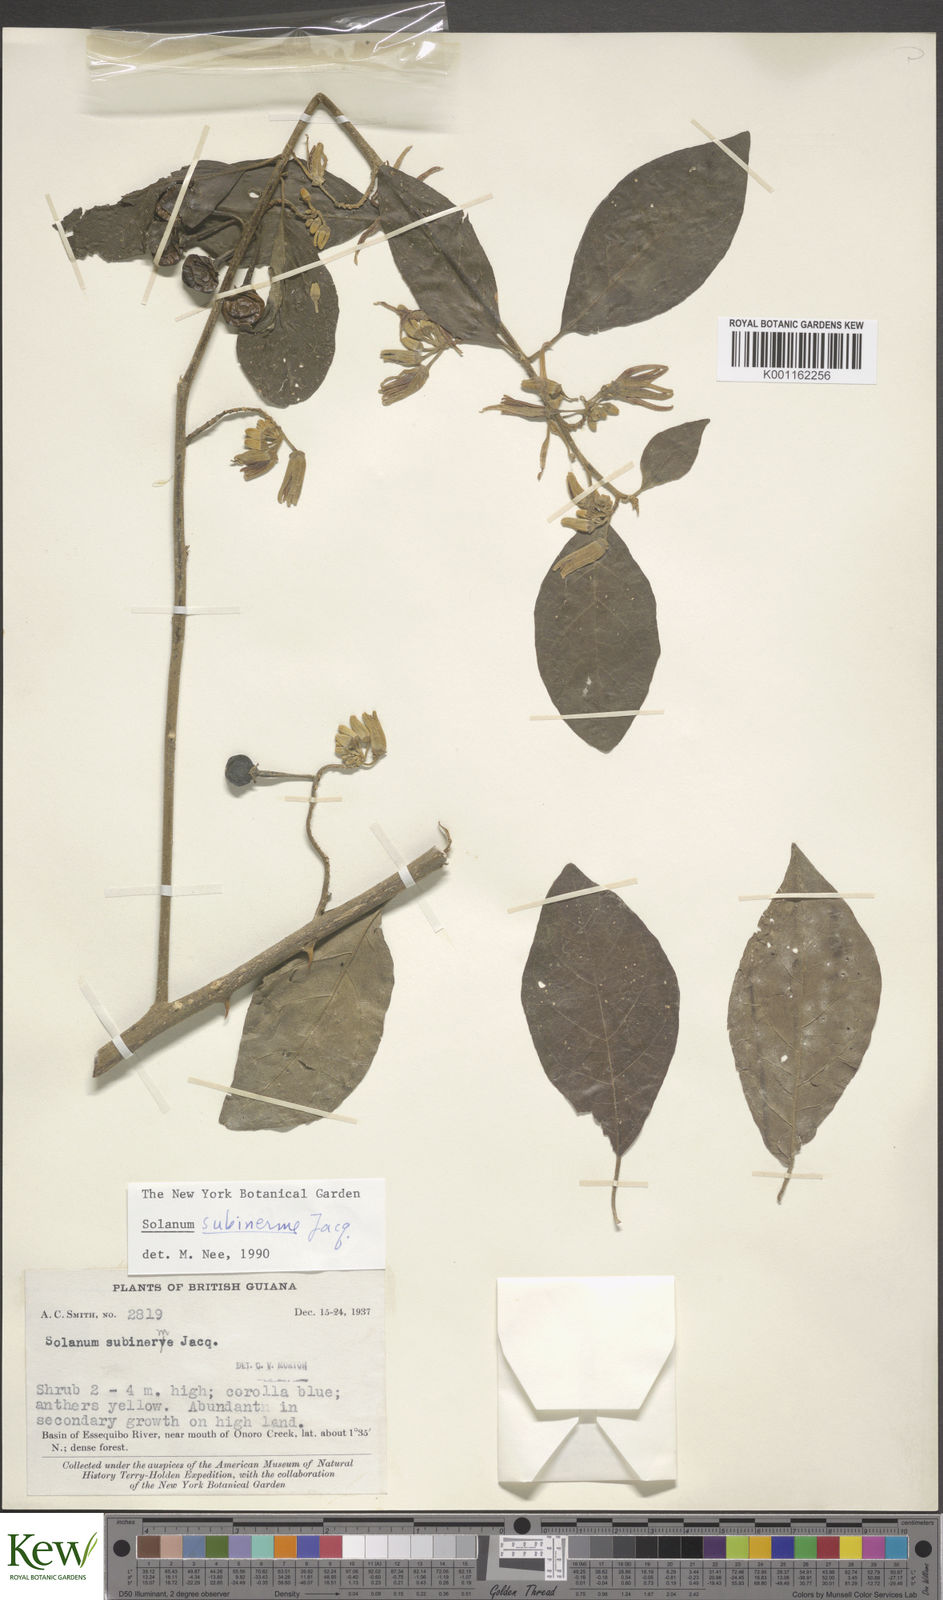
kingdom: Plantae
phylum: Tracheophyta
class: Magnoliopsida
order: Solanales
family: Solanaceae
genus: Solanum
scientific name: Solanum subinerme
